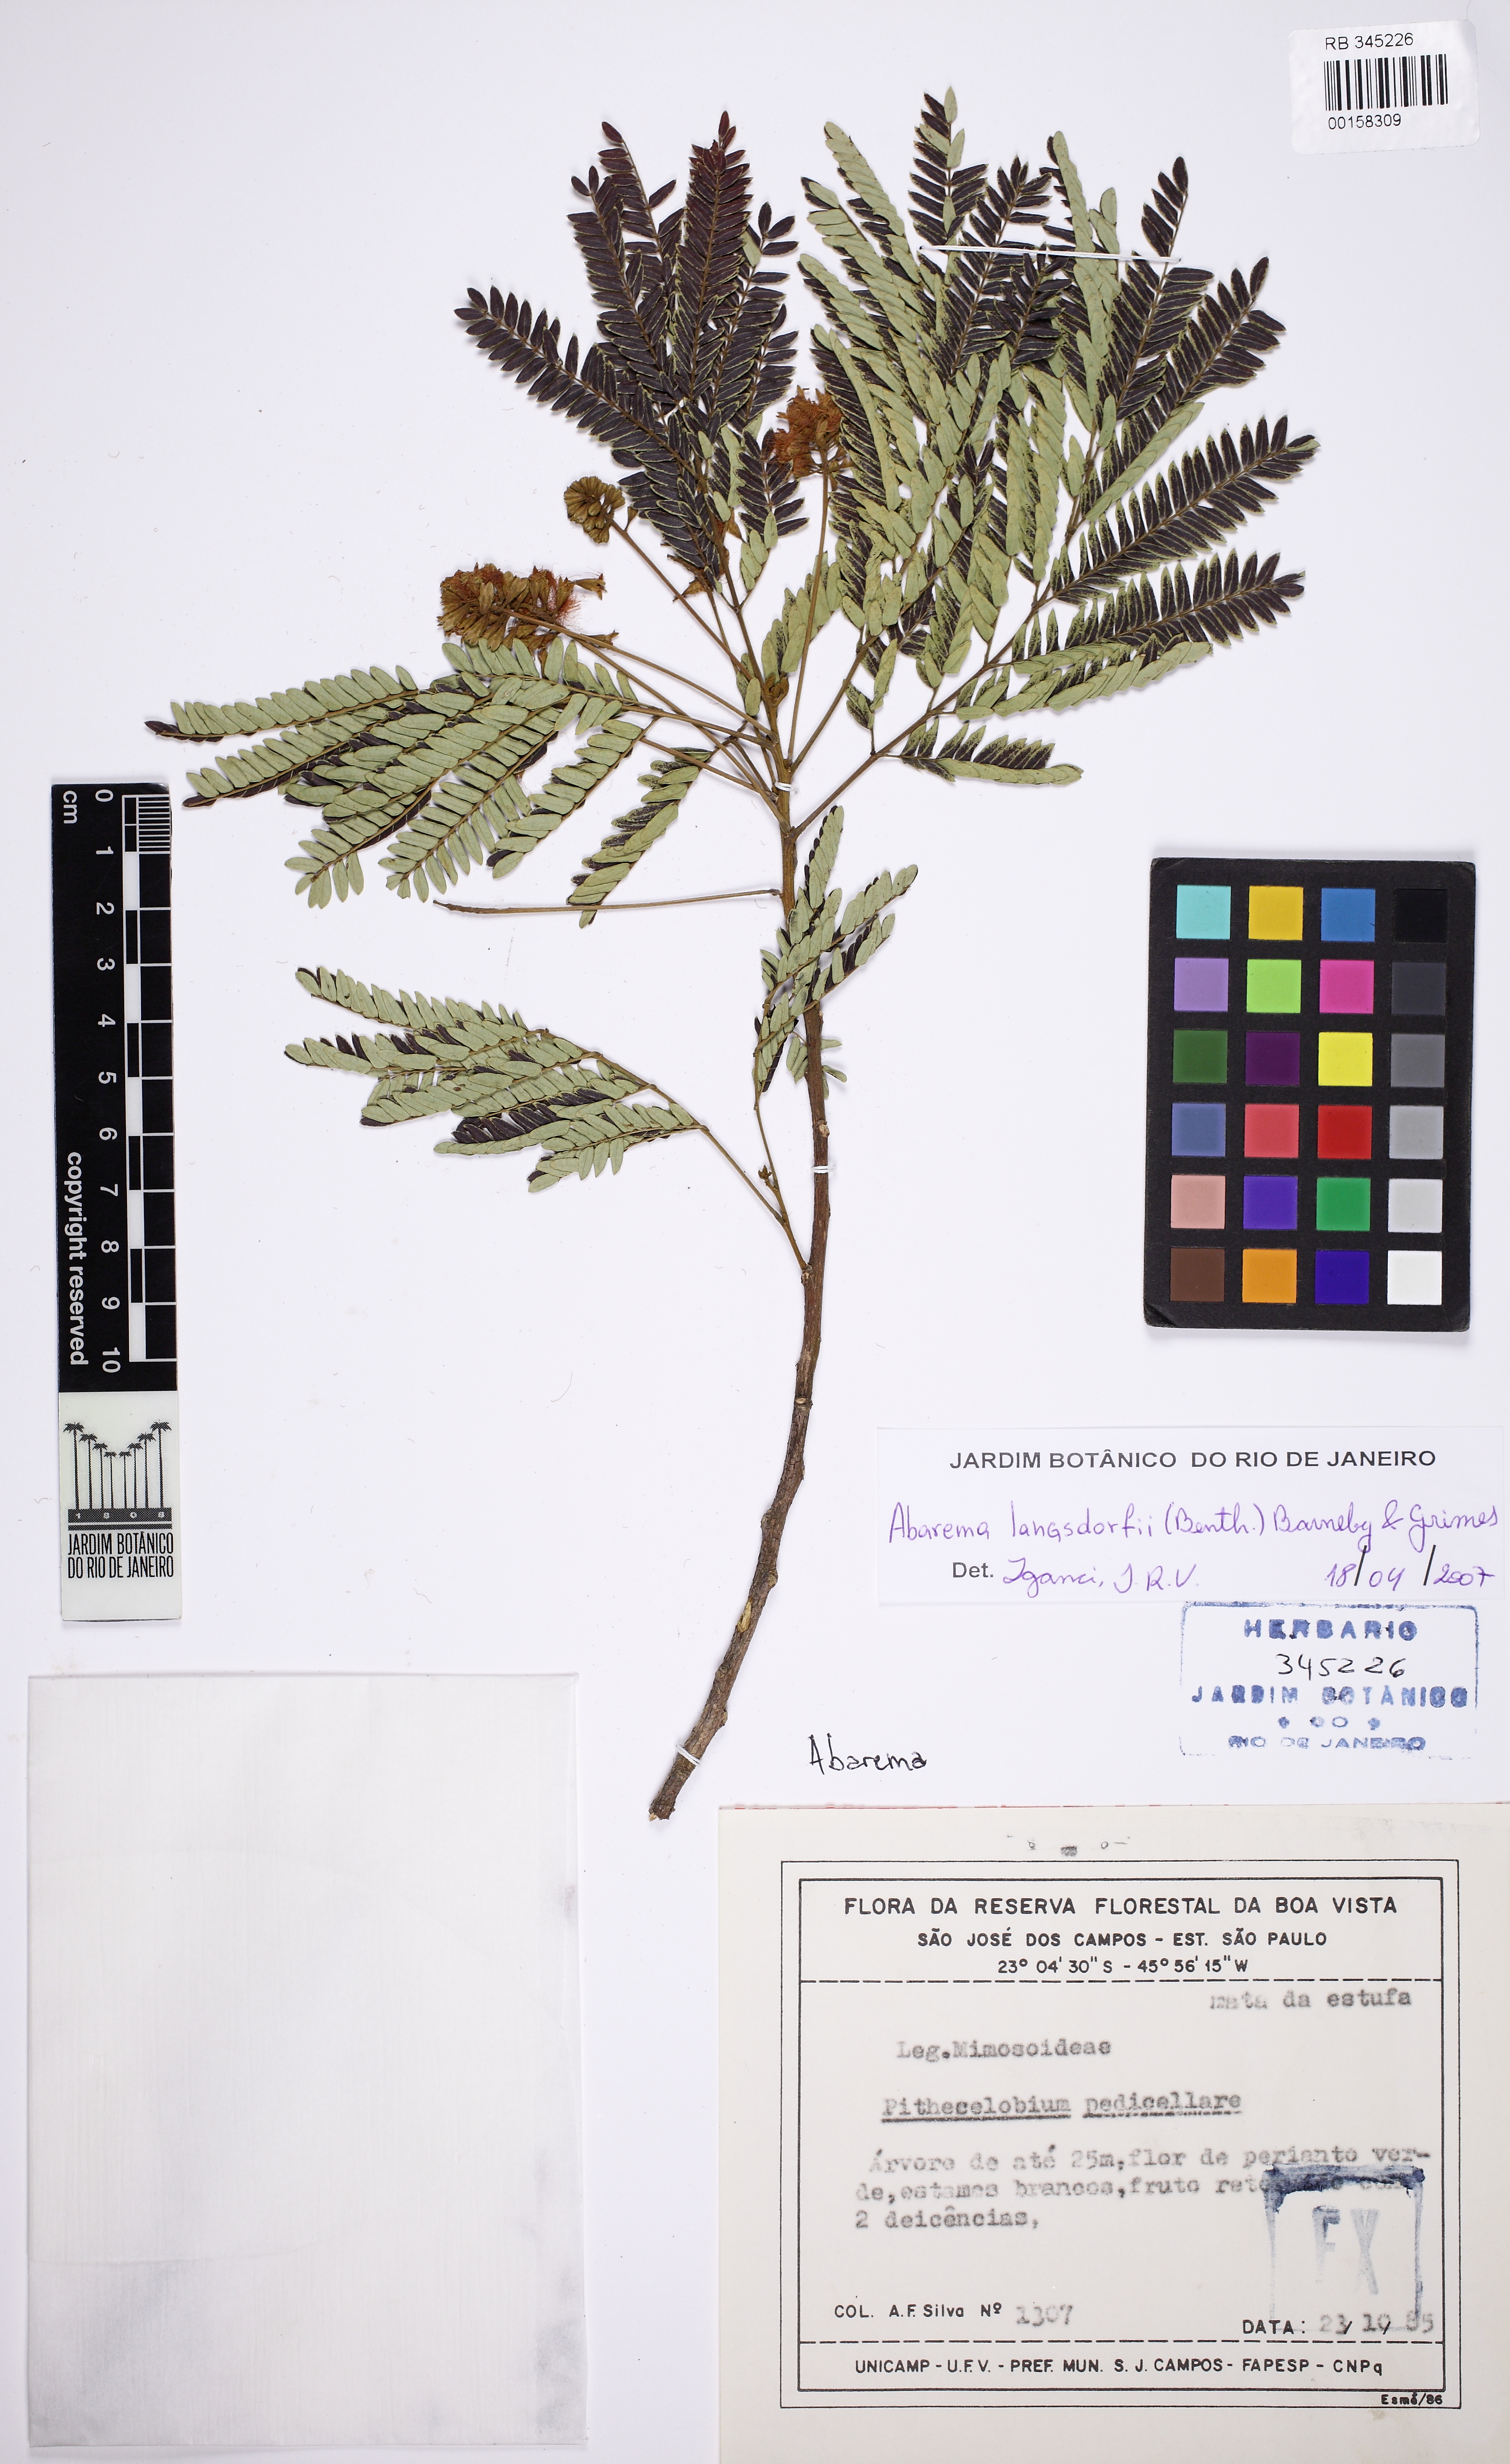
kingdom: Plantae
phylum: Tracheophyta
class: Magnoliopsida
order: Fabales
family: Fabaceae
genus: Jupunba
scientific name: Jupunba langsdorffii
